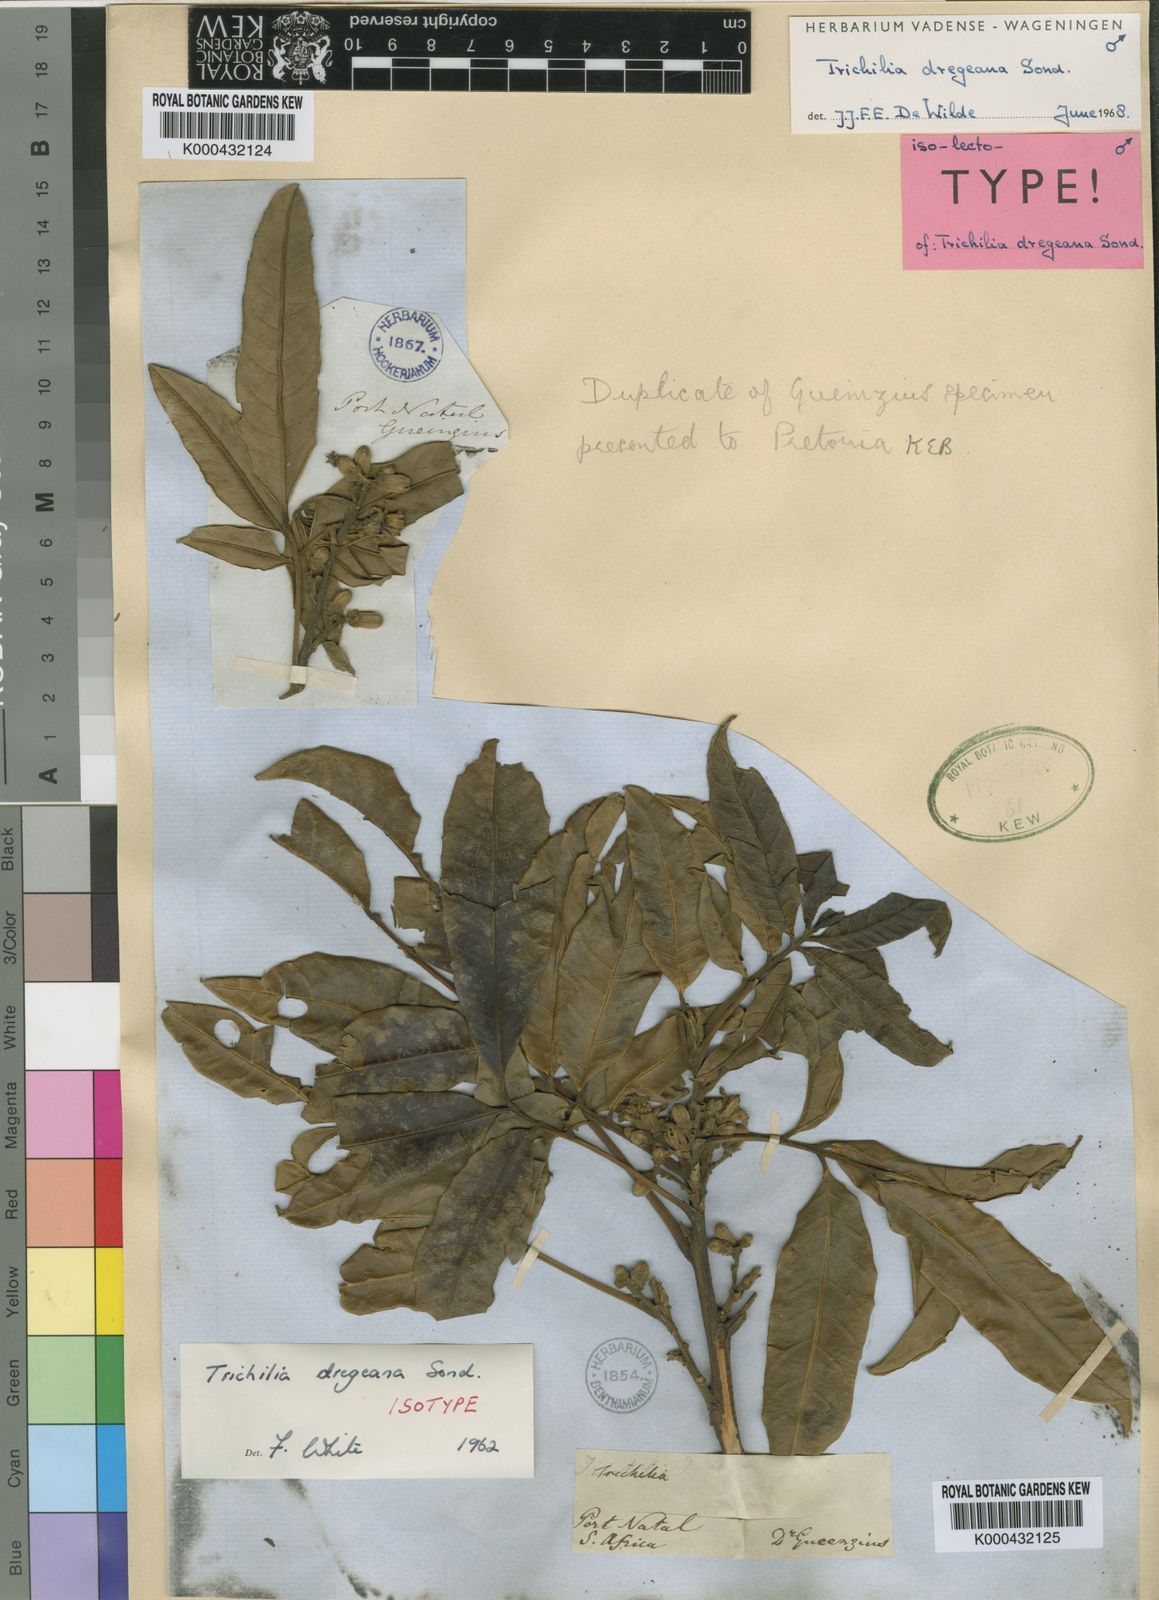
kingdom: Plantae
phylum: Tracheophyta
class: Magnoliopsida
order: Sapindales
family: Meliaceae
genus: Trichilia
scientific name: Trichilia dregeana
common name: Christmas-bells
